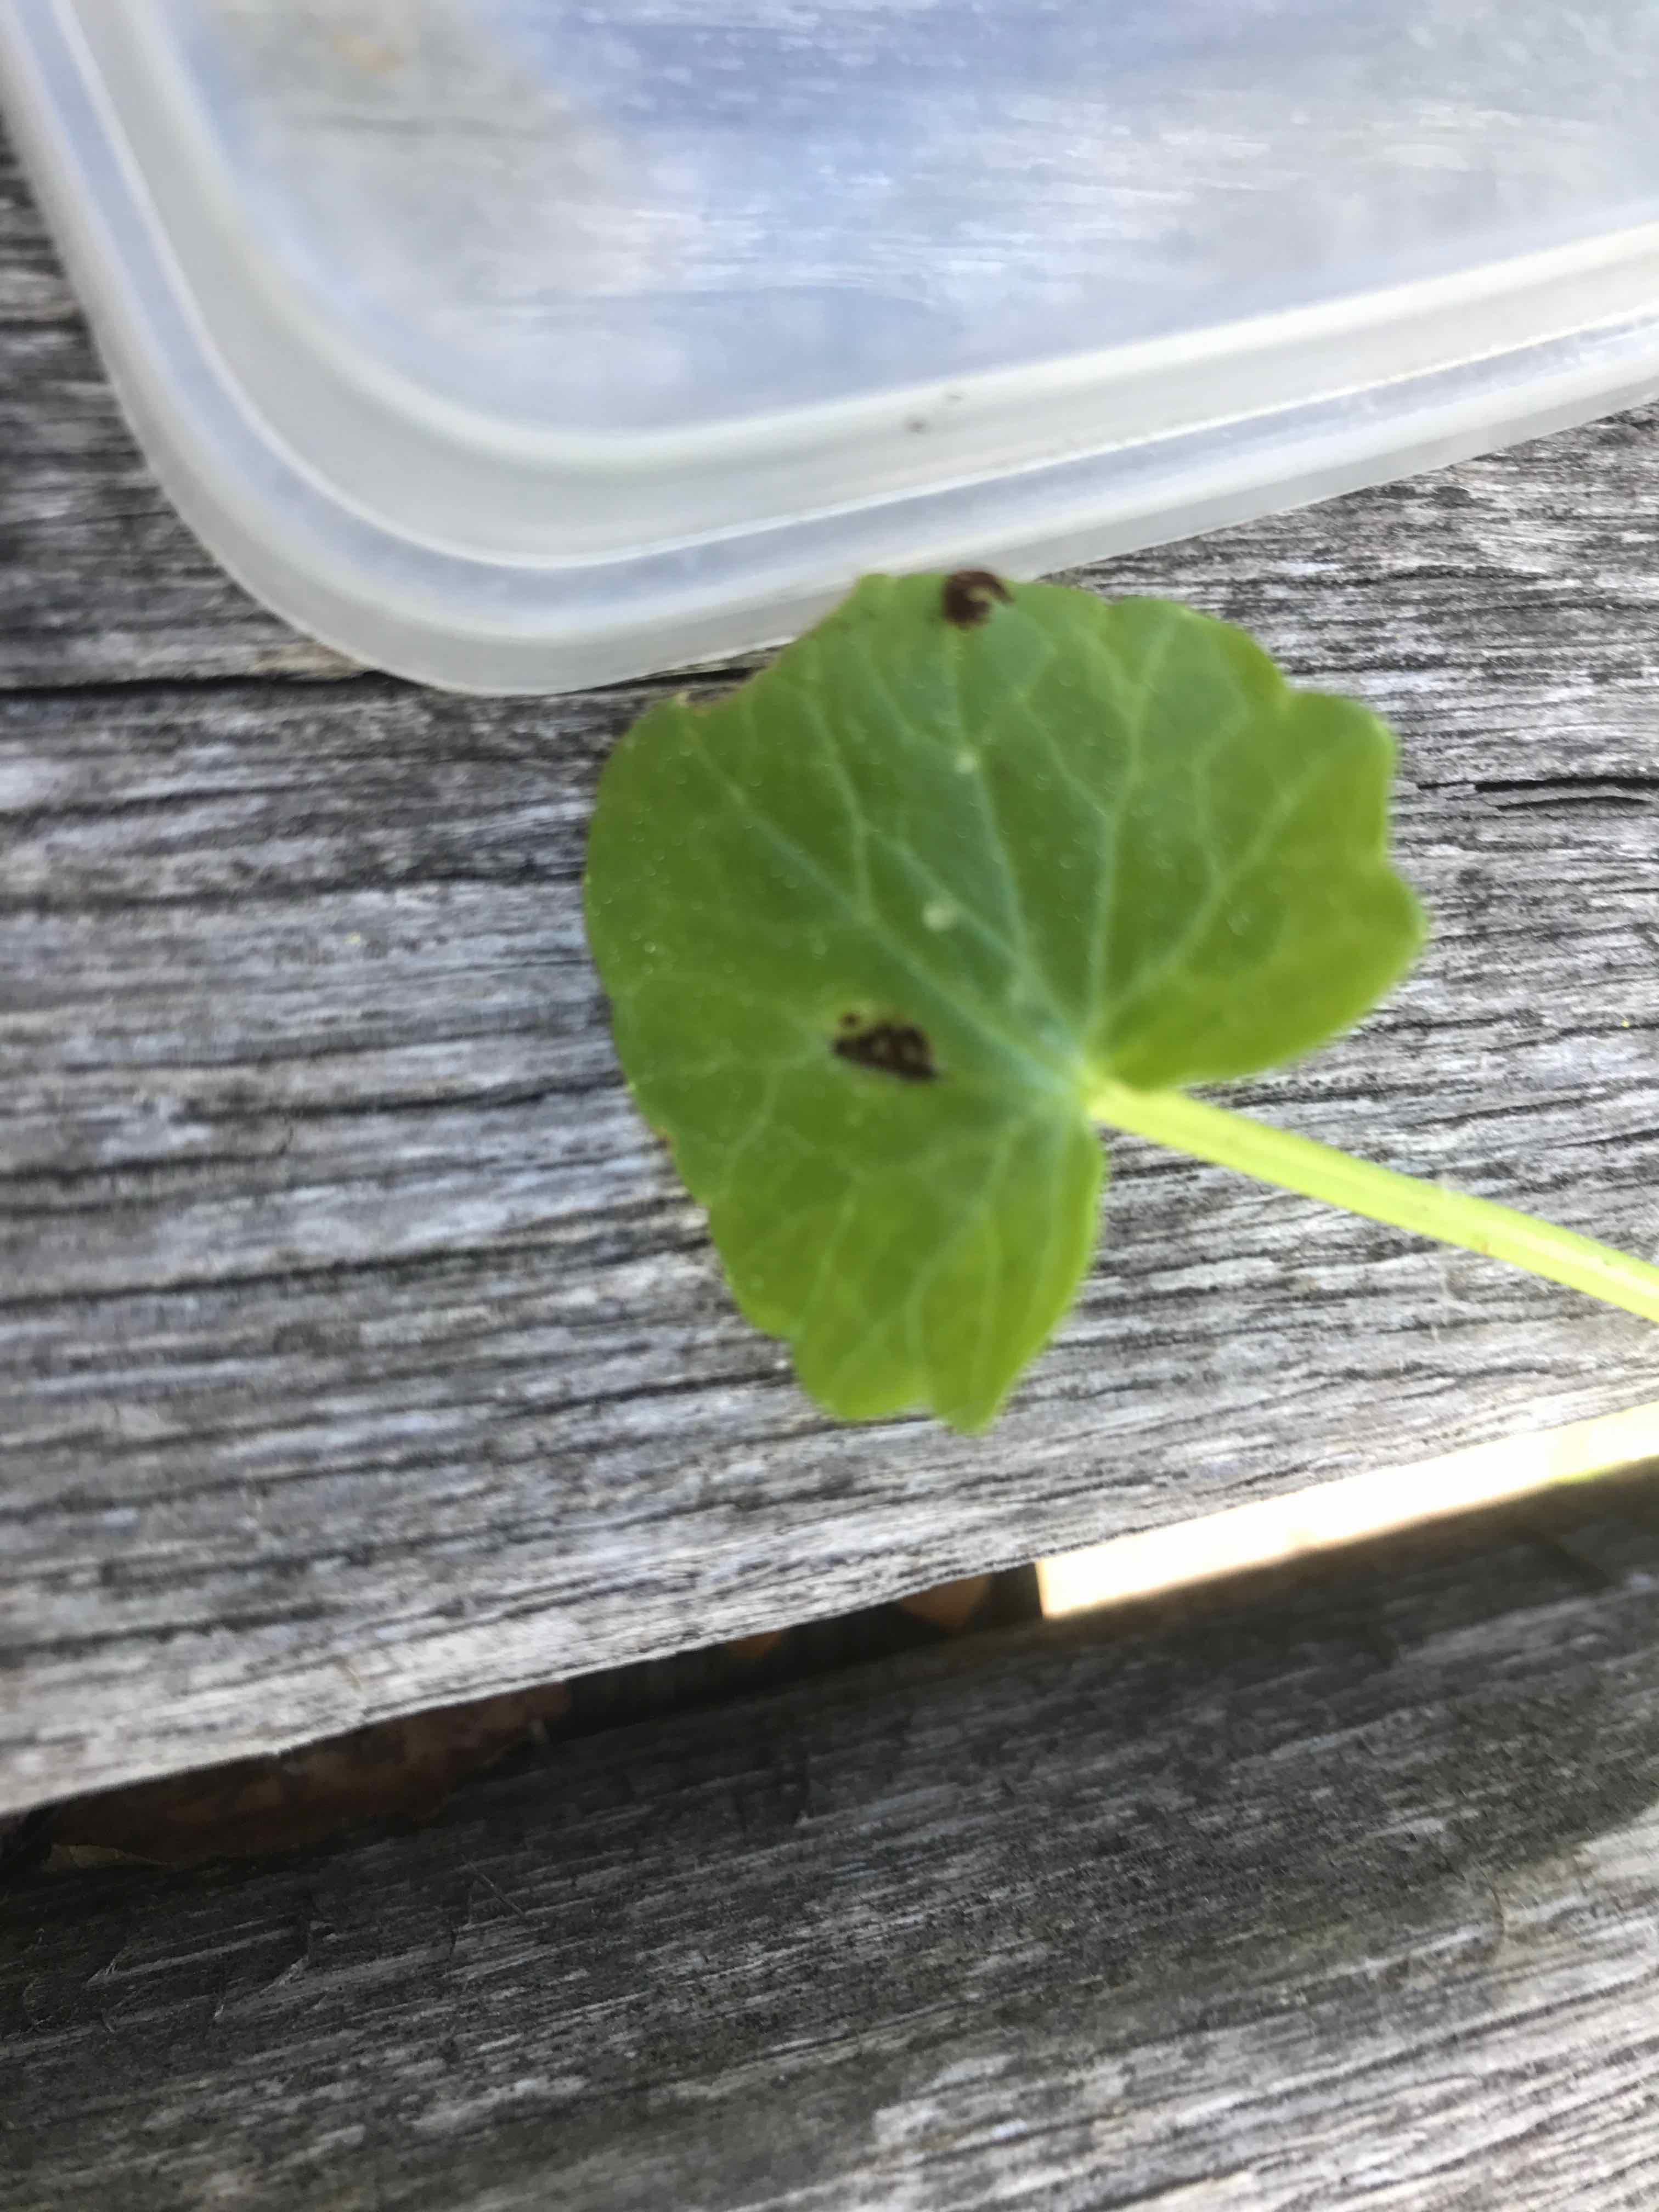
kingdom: Fungi
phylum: Basidiomycota
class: Pucciniomycetes
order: Pucciniales
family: Pucciniaceae
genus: Uromyces
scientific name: Uromyces ficariae
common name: vorterod-encellerust
